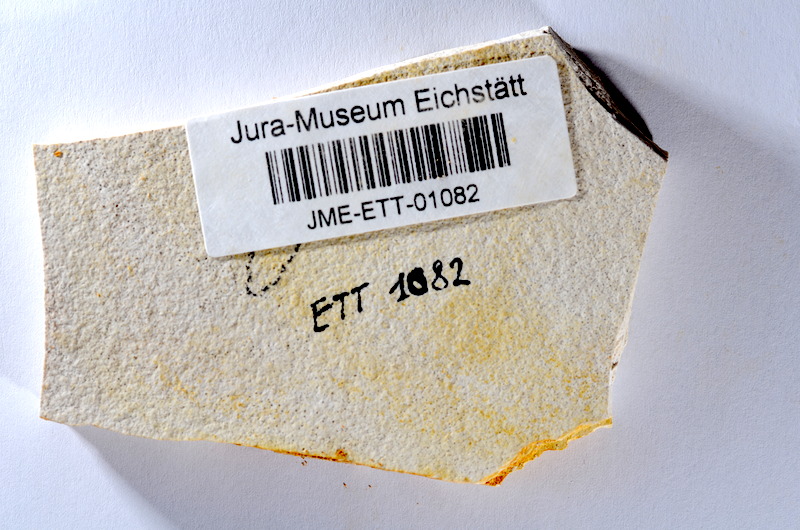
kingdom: Animalia
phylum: Chordata
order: Salmoniformes
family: Orthogonikleithridae
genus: Orthogonikleithrus
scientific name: Orthogonikleithrus hoelli
